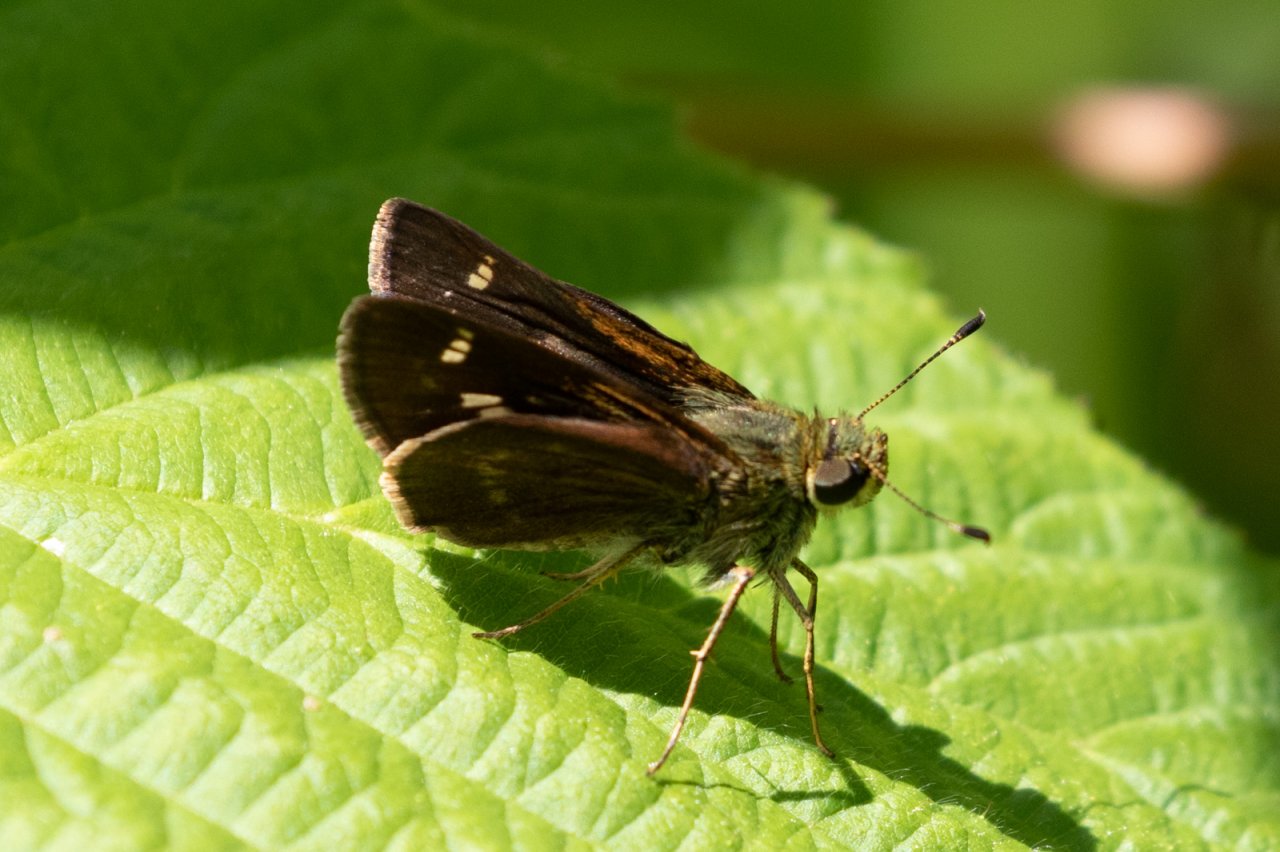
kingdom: Animalia
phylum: Arthropoda
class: Insecta
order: Lepidoptera
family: Hesperiidae
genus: Vernia
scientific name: Vernia verna
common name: Little Glassywing
